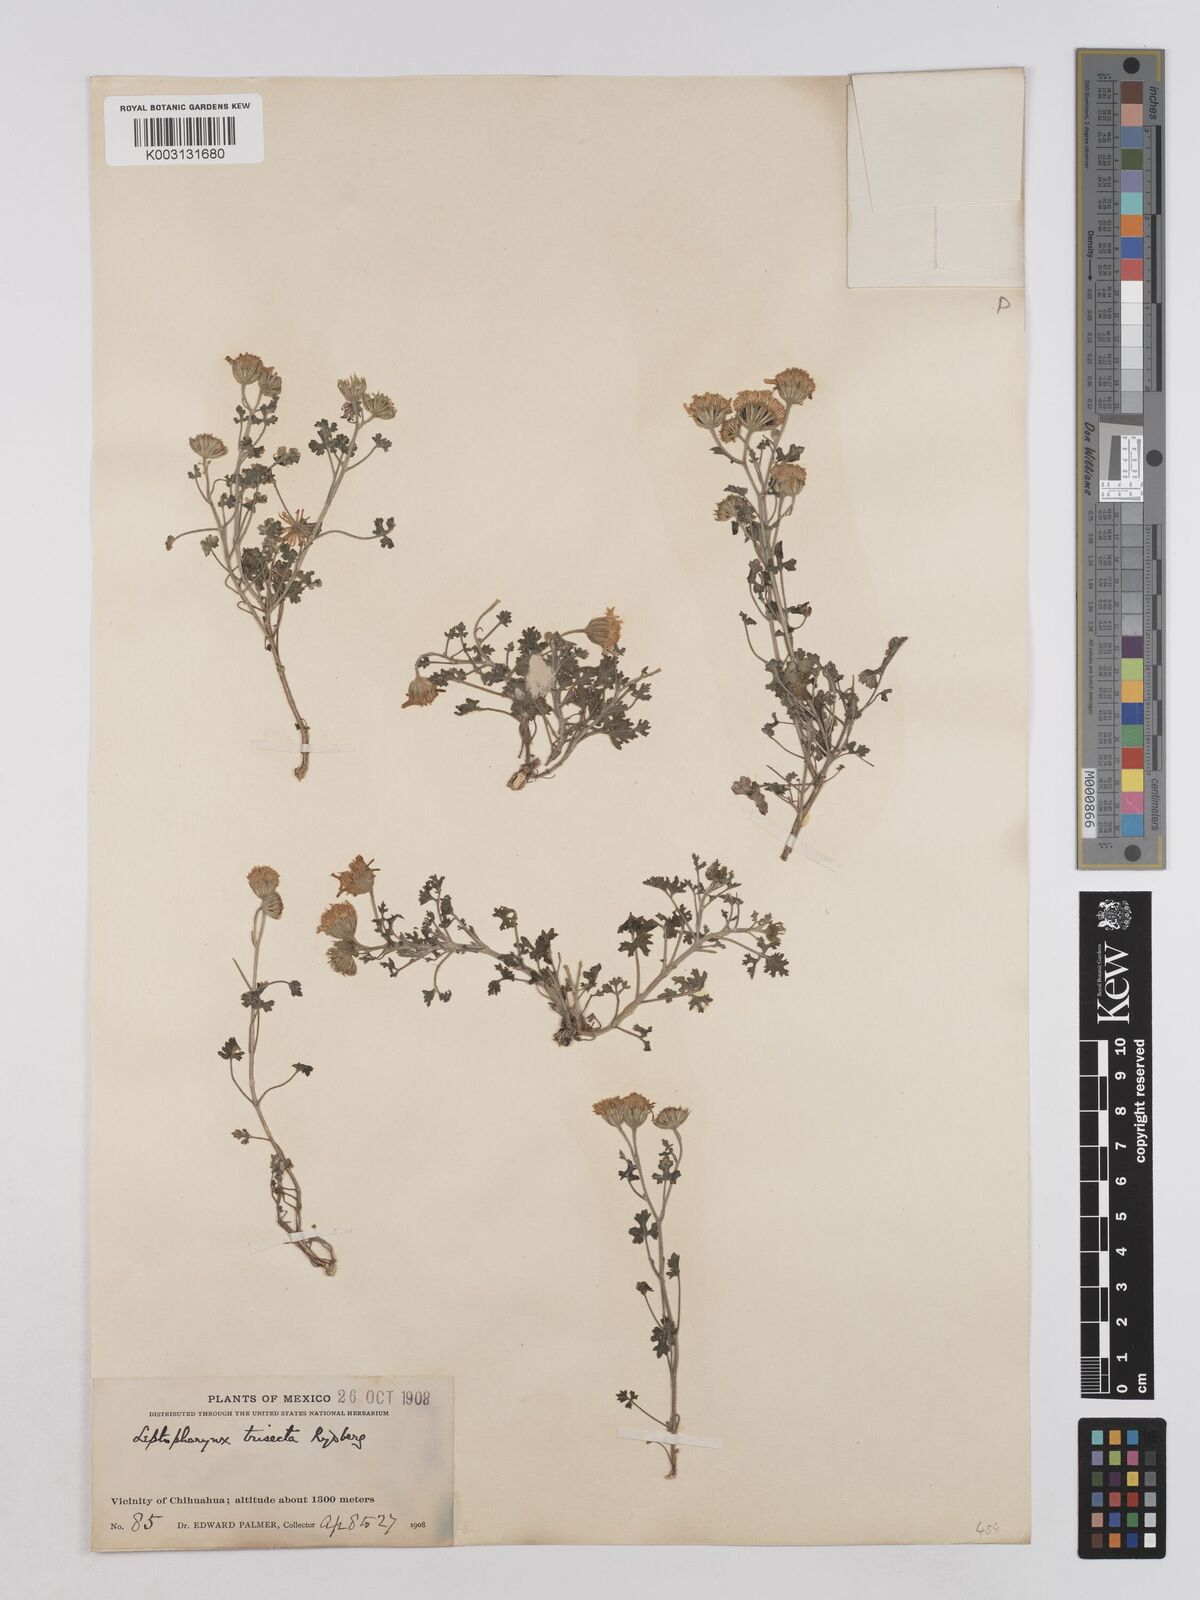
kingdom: Plantae
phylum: Tracheophyta
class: Magnoliopsida
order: Asterales
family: Asteraceae
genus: Laphamia
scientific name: Laphamia parryi
